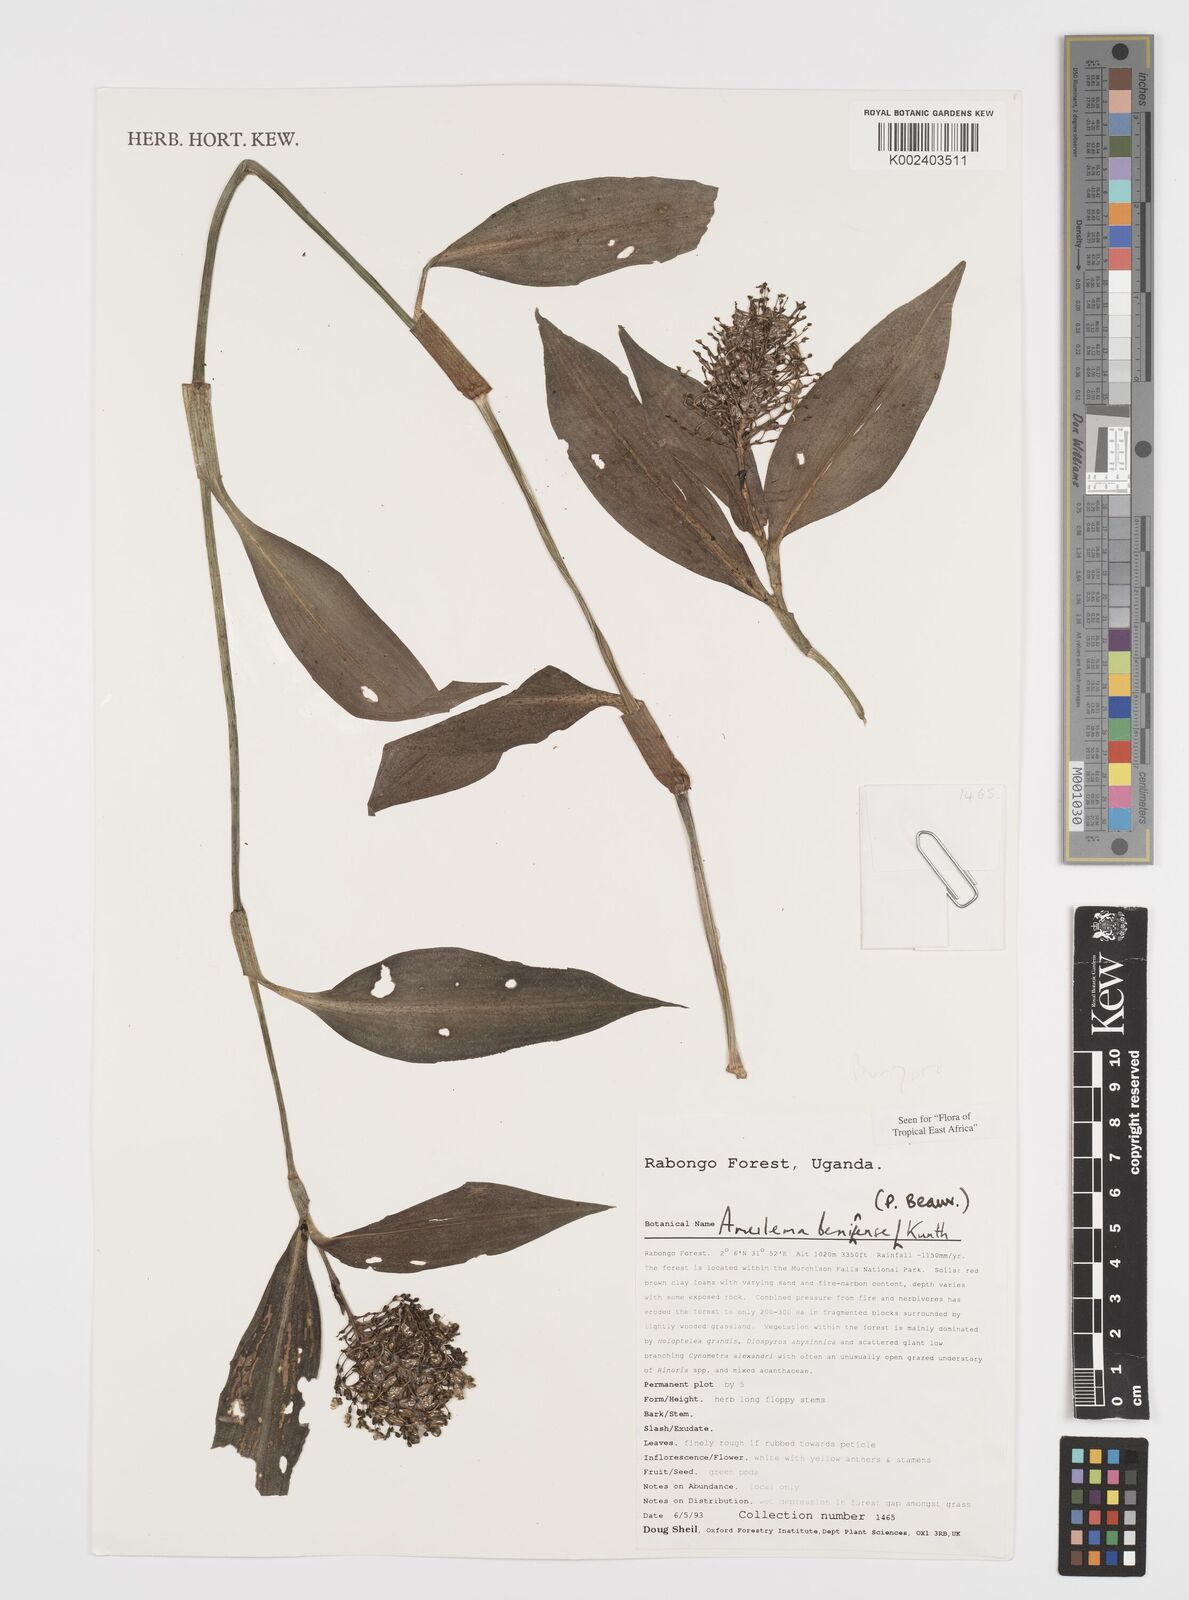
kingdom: Plantae
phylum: Tracheophyta
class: Liliopsida
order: Commelinales
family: Commelinaceae
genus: Aneilema
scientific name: Aneilema beniniense
